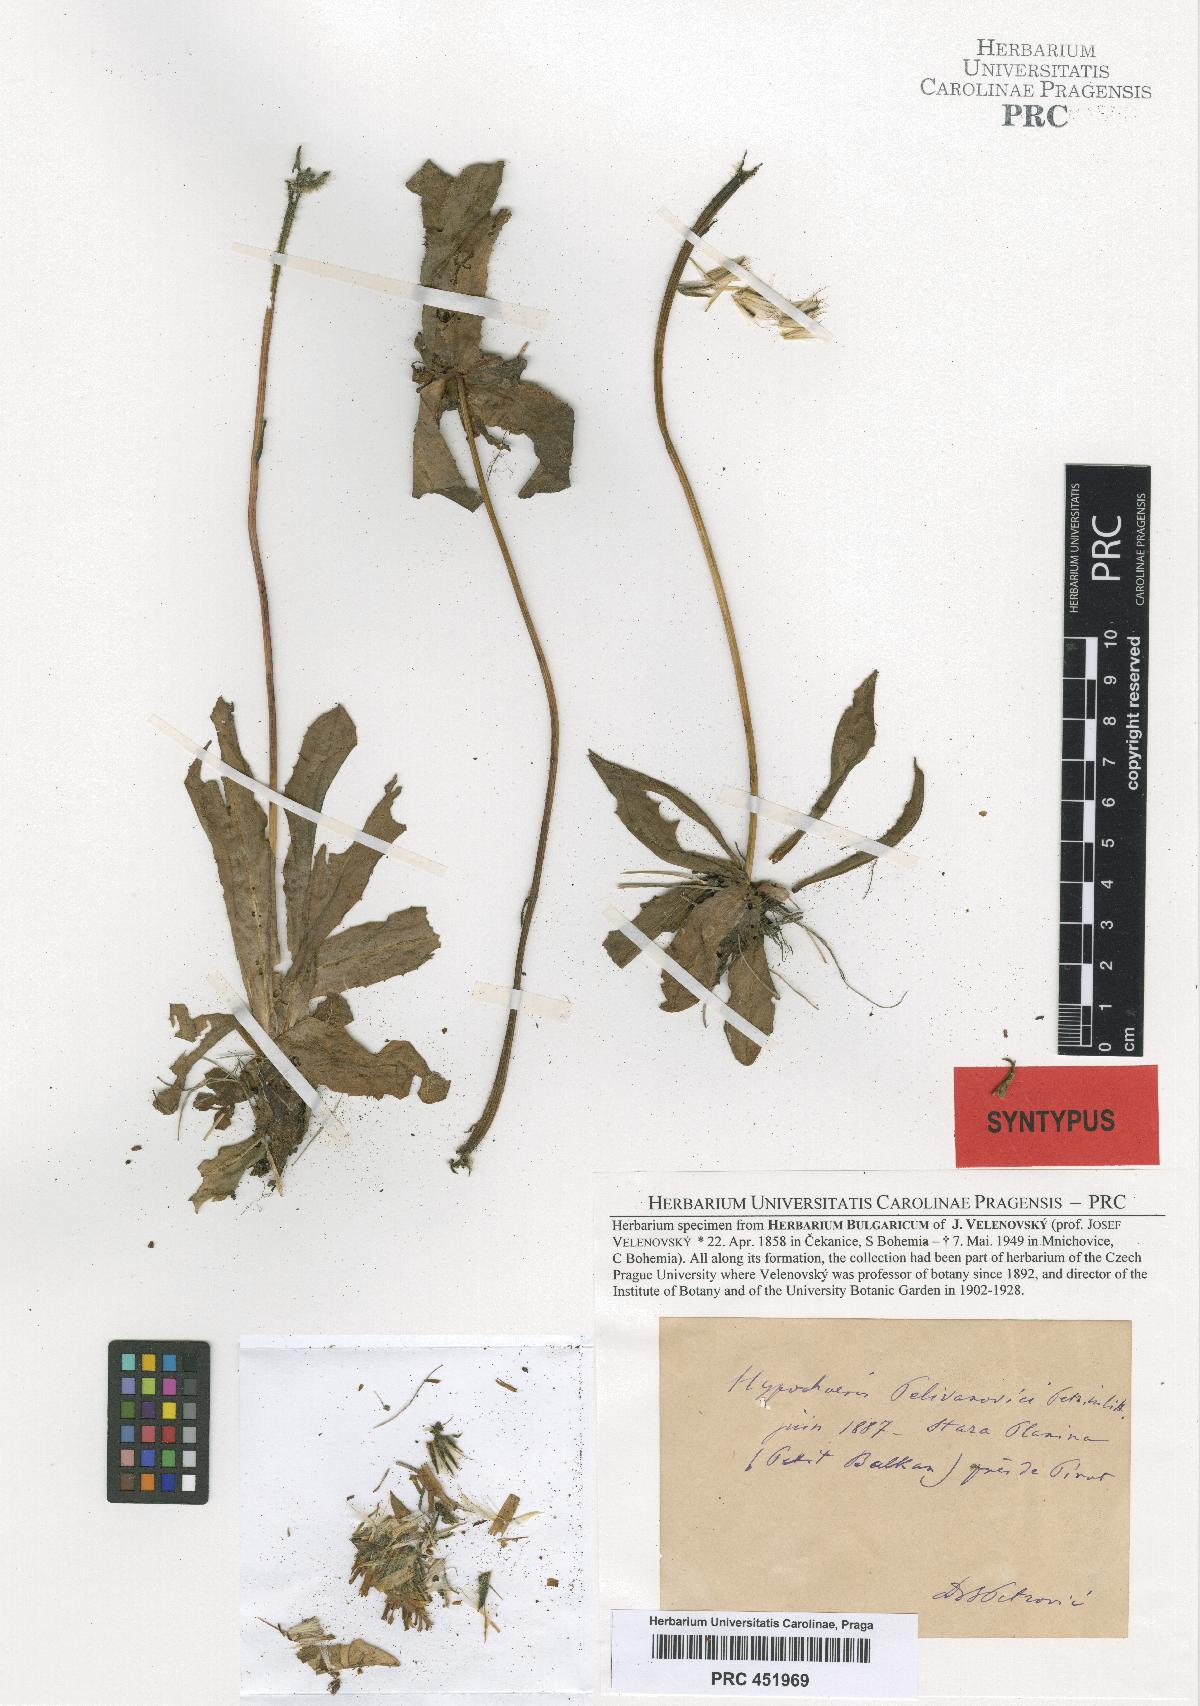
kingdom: Plantae
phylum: Tracheophyta
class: Magnoliopsida
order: Asterales
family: Asteraceae
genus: Trommsdorffia
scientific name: Trommsdorffia maculata
